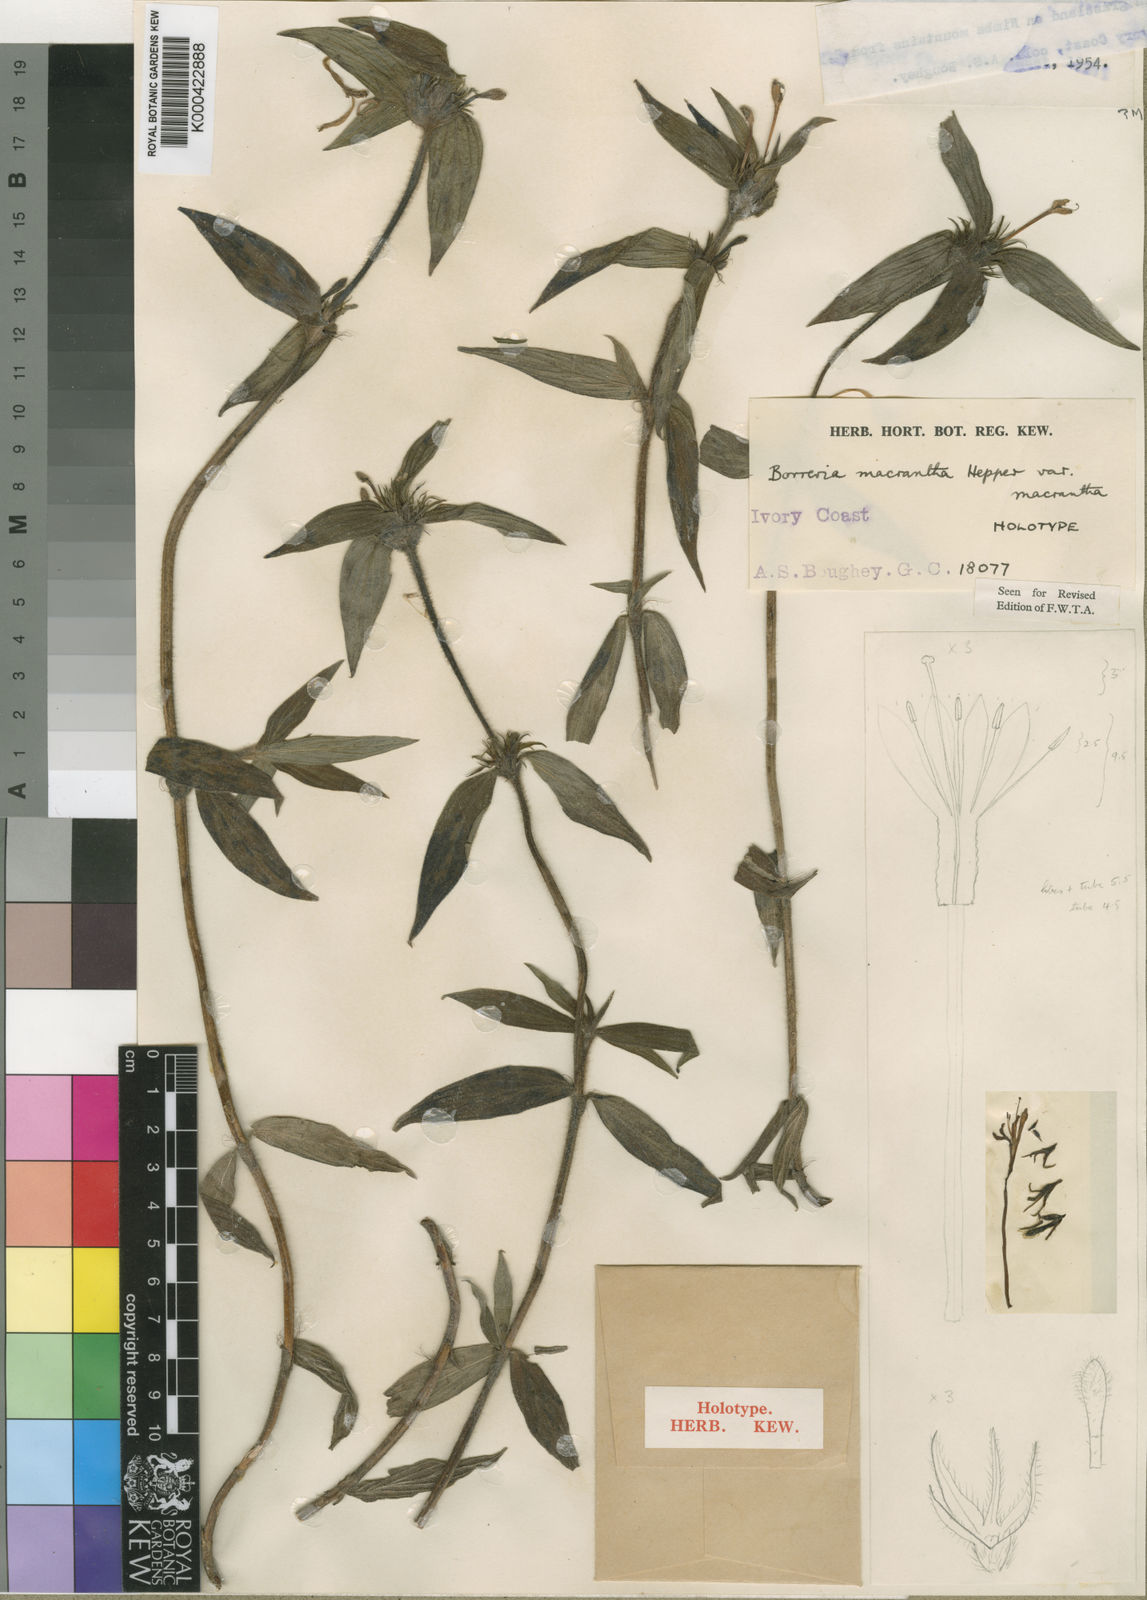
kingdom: Plantae
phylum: Tracheophyta
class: Magnoliopsida
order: Gentianales
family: Rubiaceae
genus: Spermacoce
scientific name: Spermacoce ivorensis
